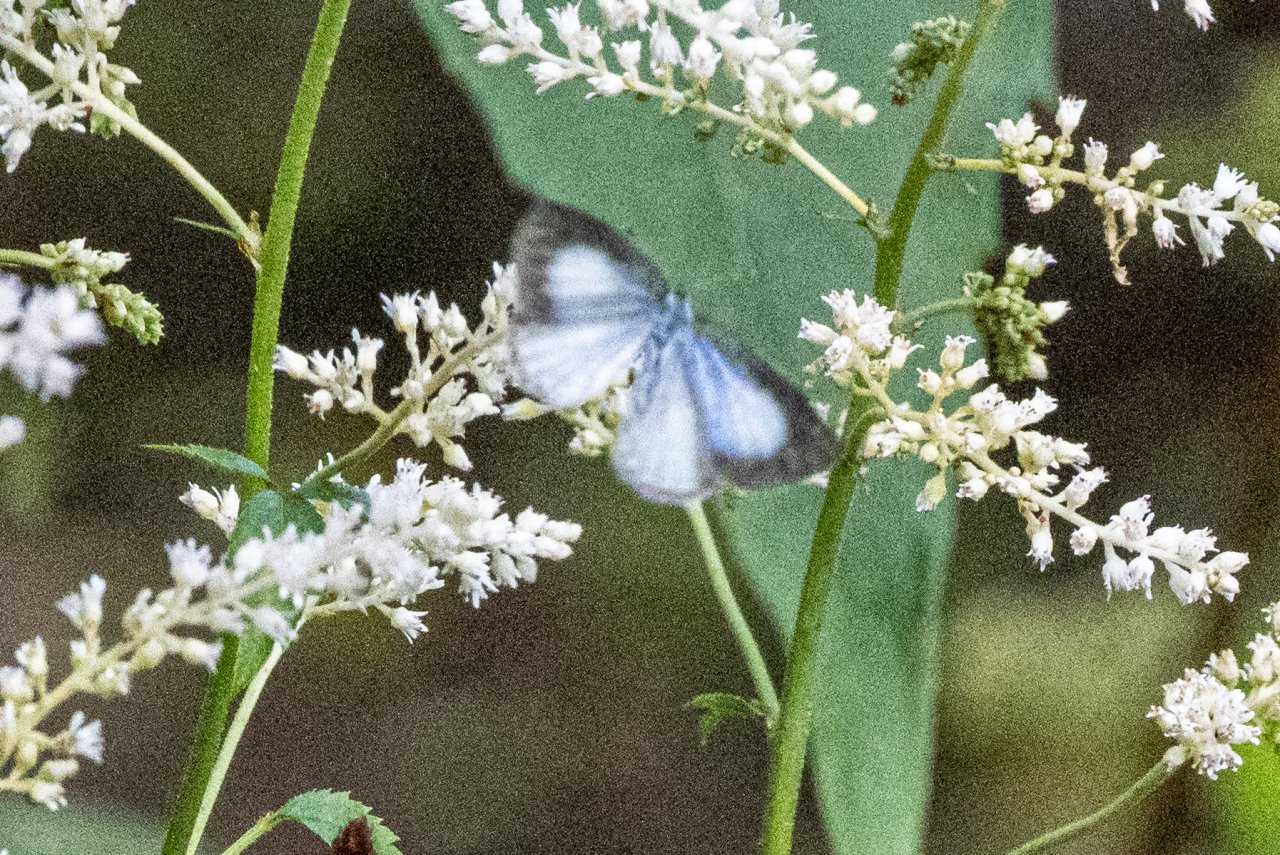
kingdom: Animalia
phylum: Arthropoda
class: Insecta
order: Lepidoptera
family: Lycaenidae
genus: Cyaniris
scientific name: Cyaniris neglecta
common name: Summer Azure
